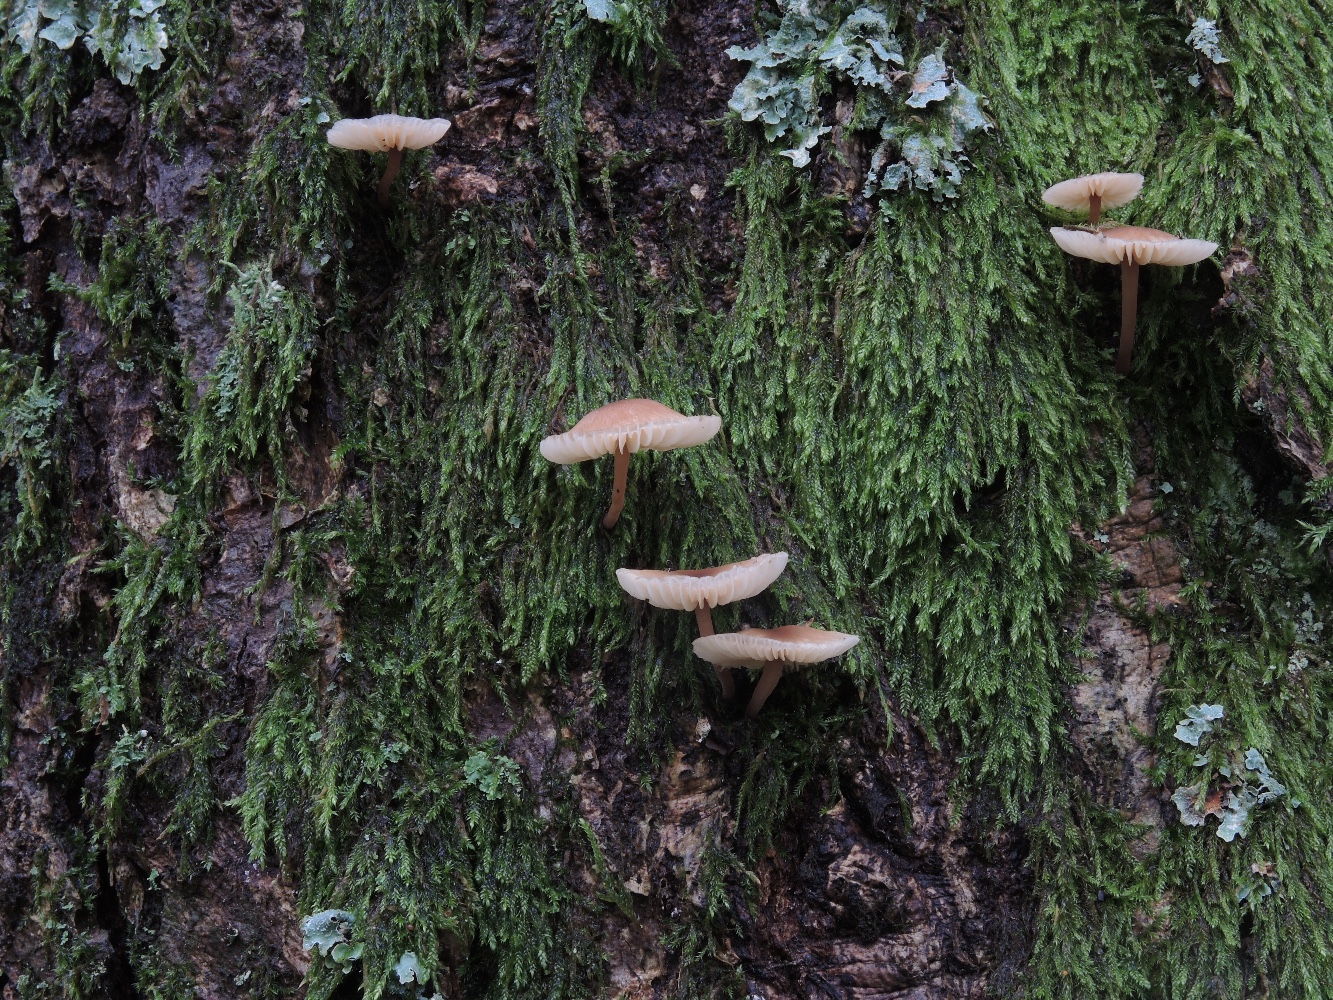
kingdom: Fungi
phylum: Basidiomycota
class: Agaricomycetes
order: Agaricales
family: Omphalotaceae
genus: Gymnopus
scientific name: Gymnopus inodorus
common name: lugtløs fladhat
